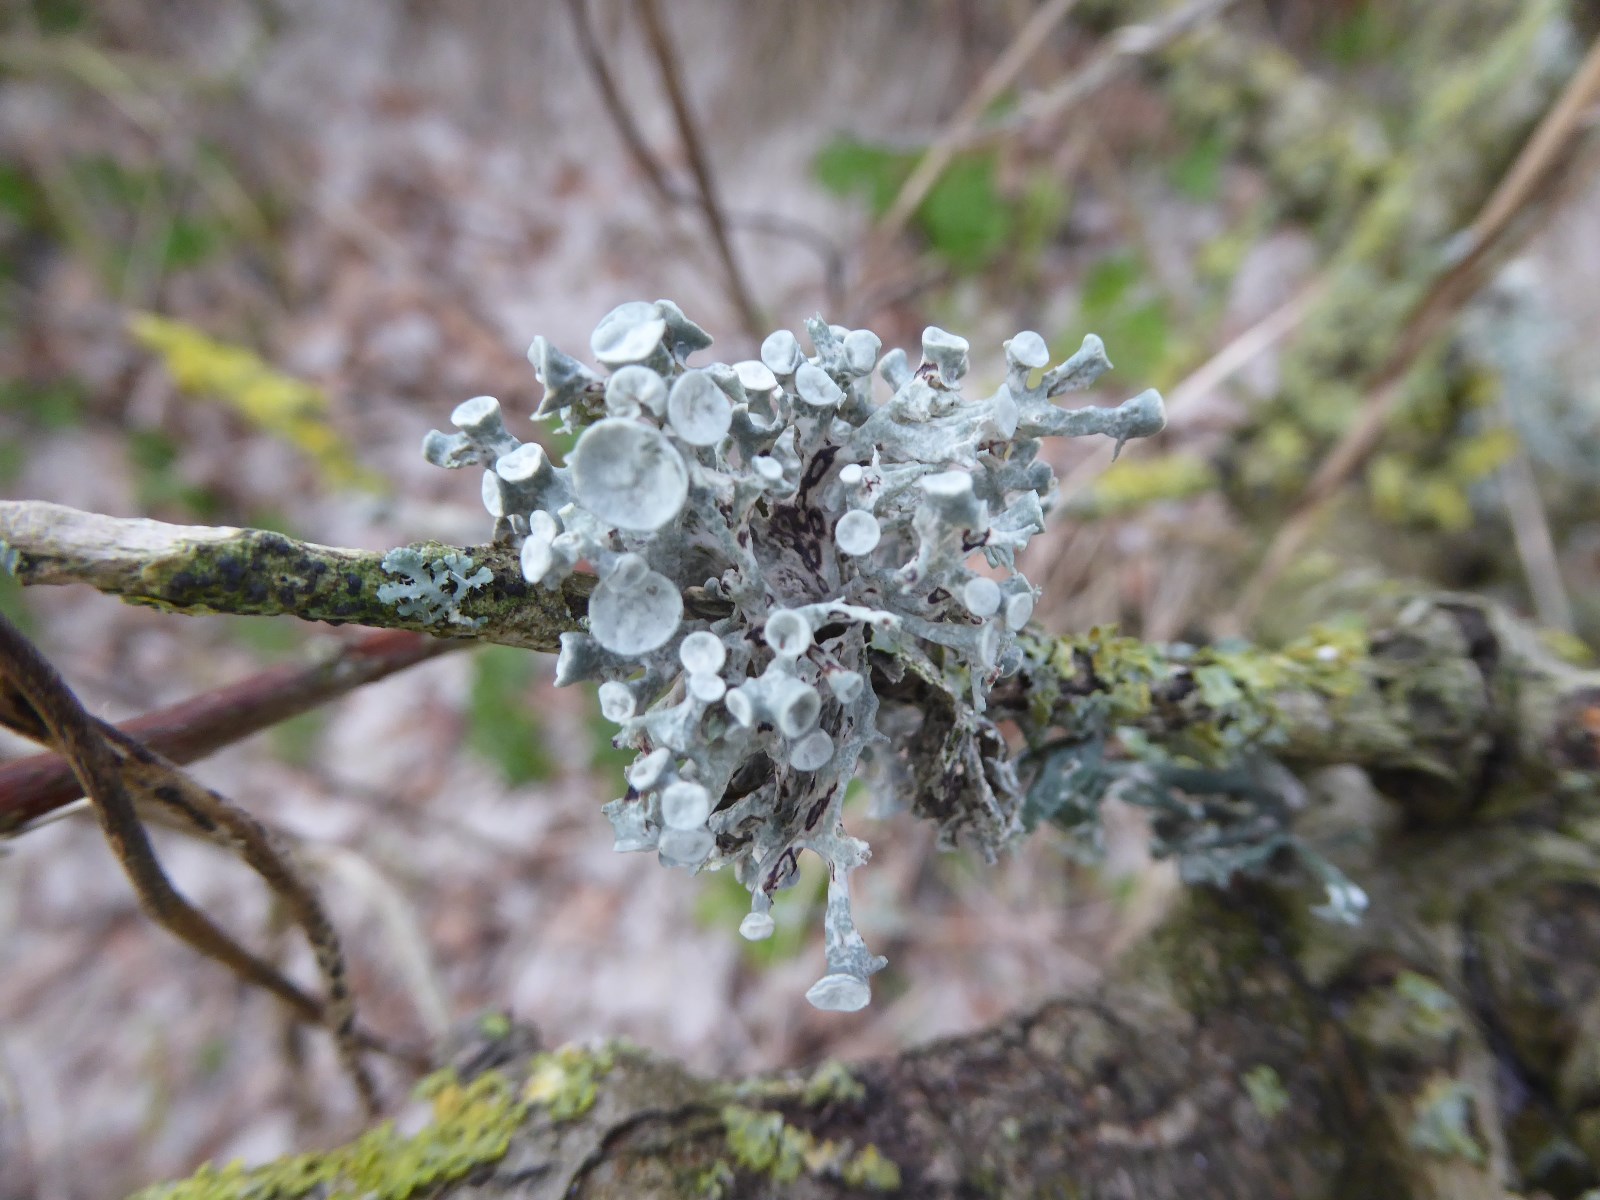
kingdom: Fungi
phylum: Ascomycota
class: Lecanoromycetes
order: Lecanorales
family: Ramalinaceae
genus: Ramalina
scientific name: Ramalina fastigiata
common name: tue-grenlav
